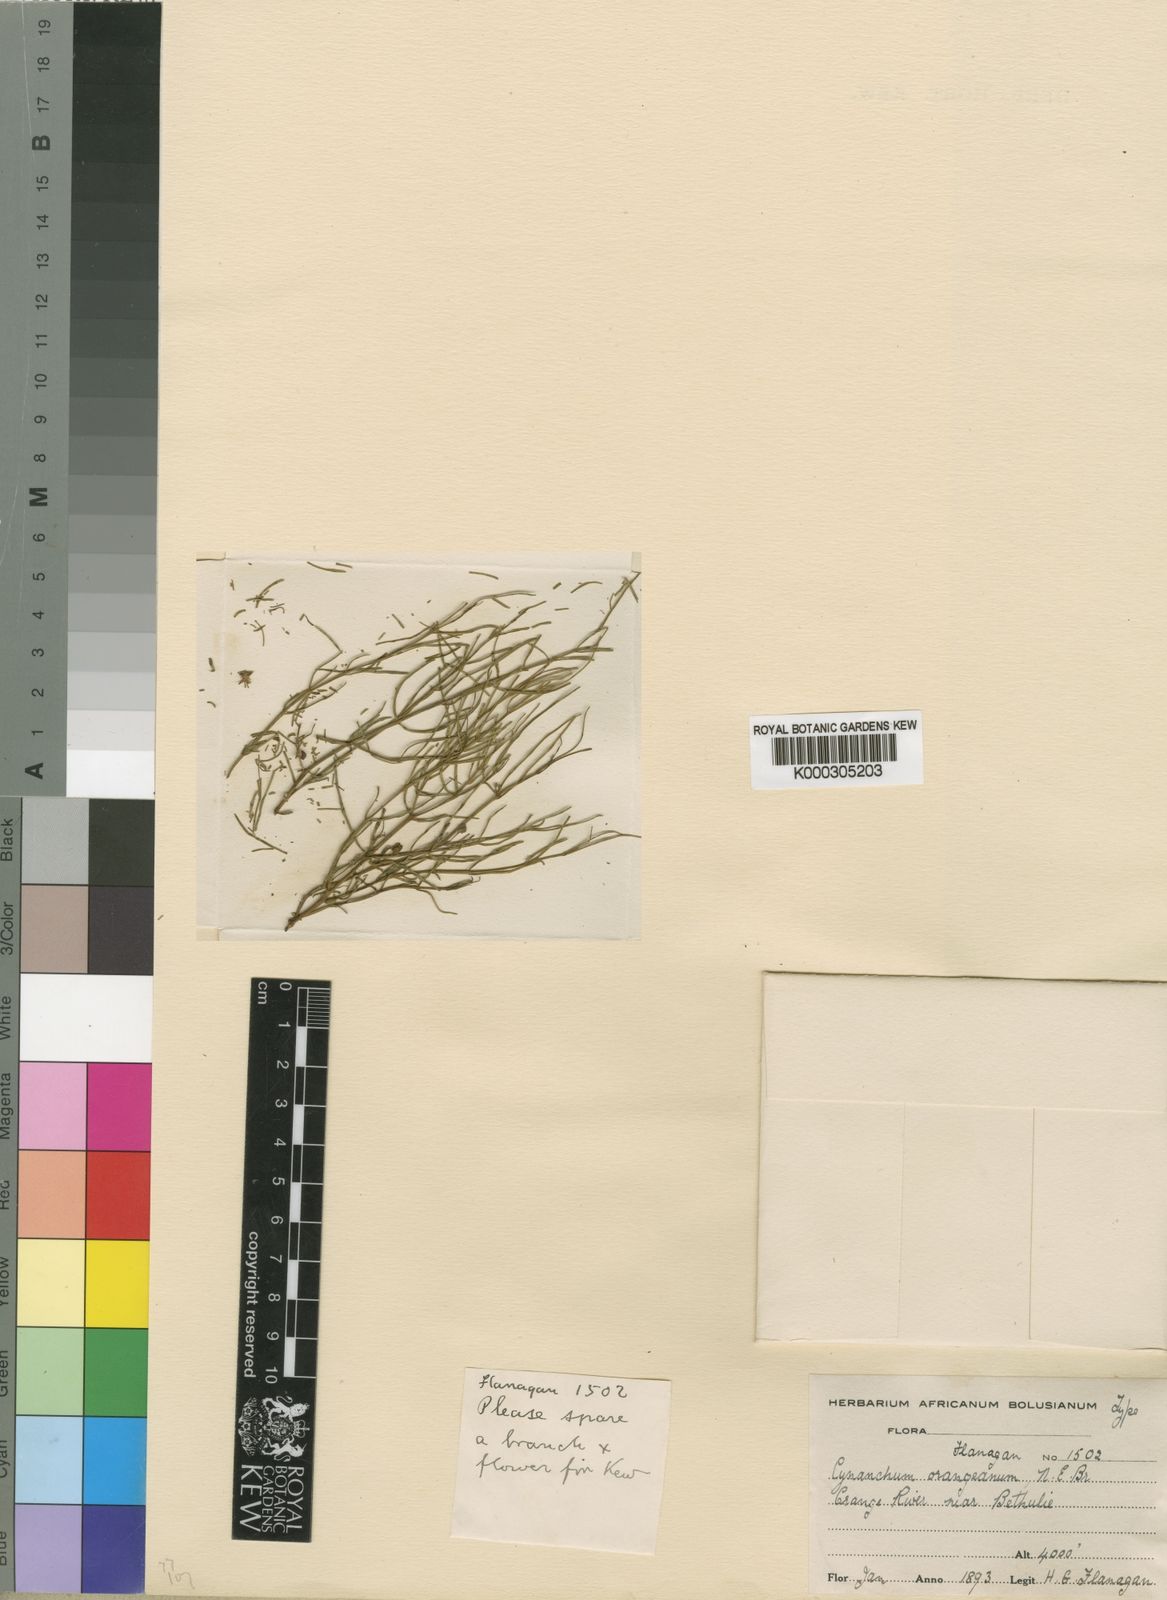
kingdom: Plantae
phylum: Tracheophyta
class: Magnoliopsida
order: Gentianales
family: Apocynaceae
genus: Cynanchum
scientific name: Cynanchum orangeanum
